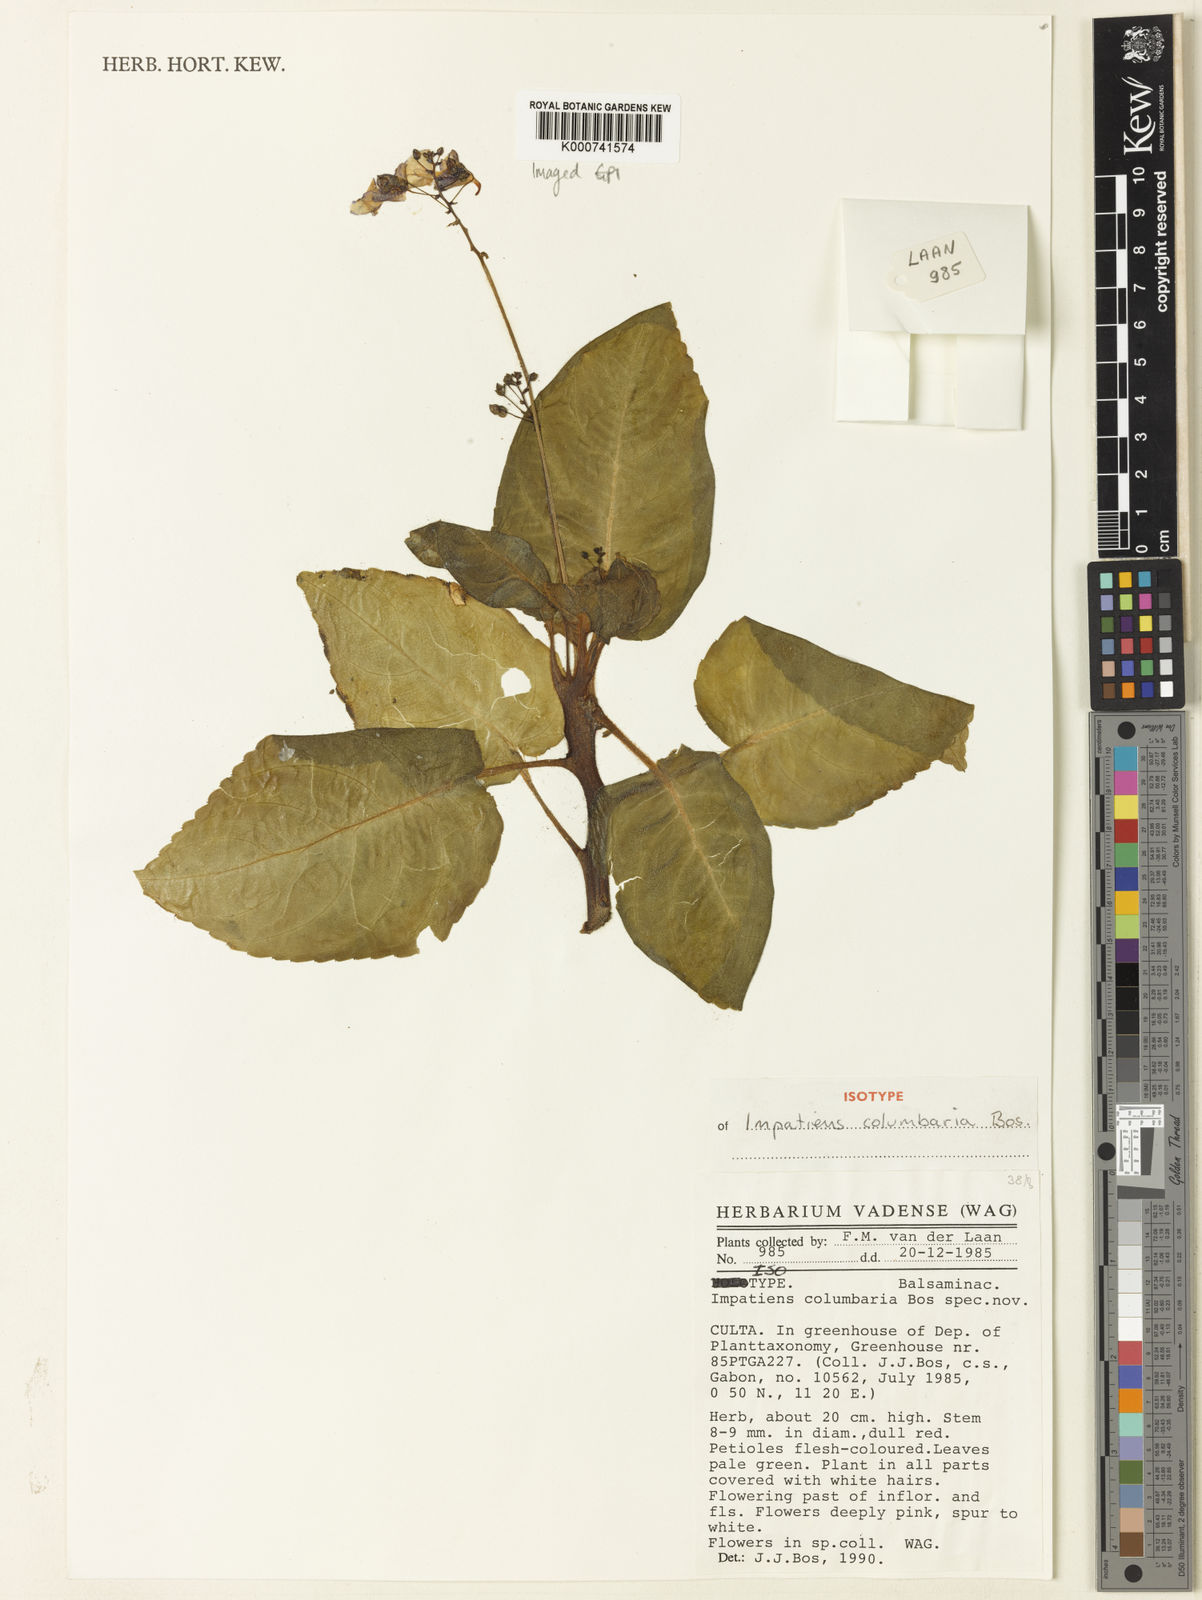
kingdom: Plantae
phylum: Tracheophyta
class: Magnoliopsida
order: Ericales
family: Balsaminaceae
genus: Impatiens
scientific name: Impatiens columbaria
